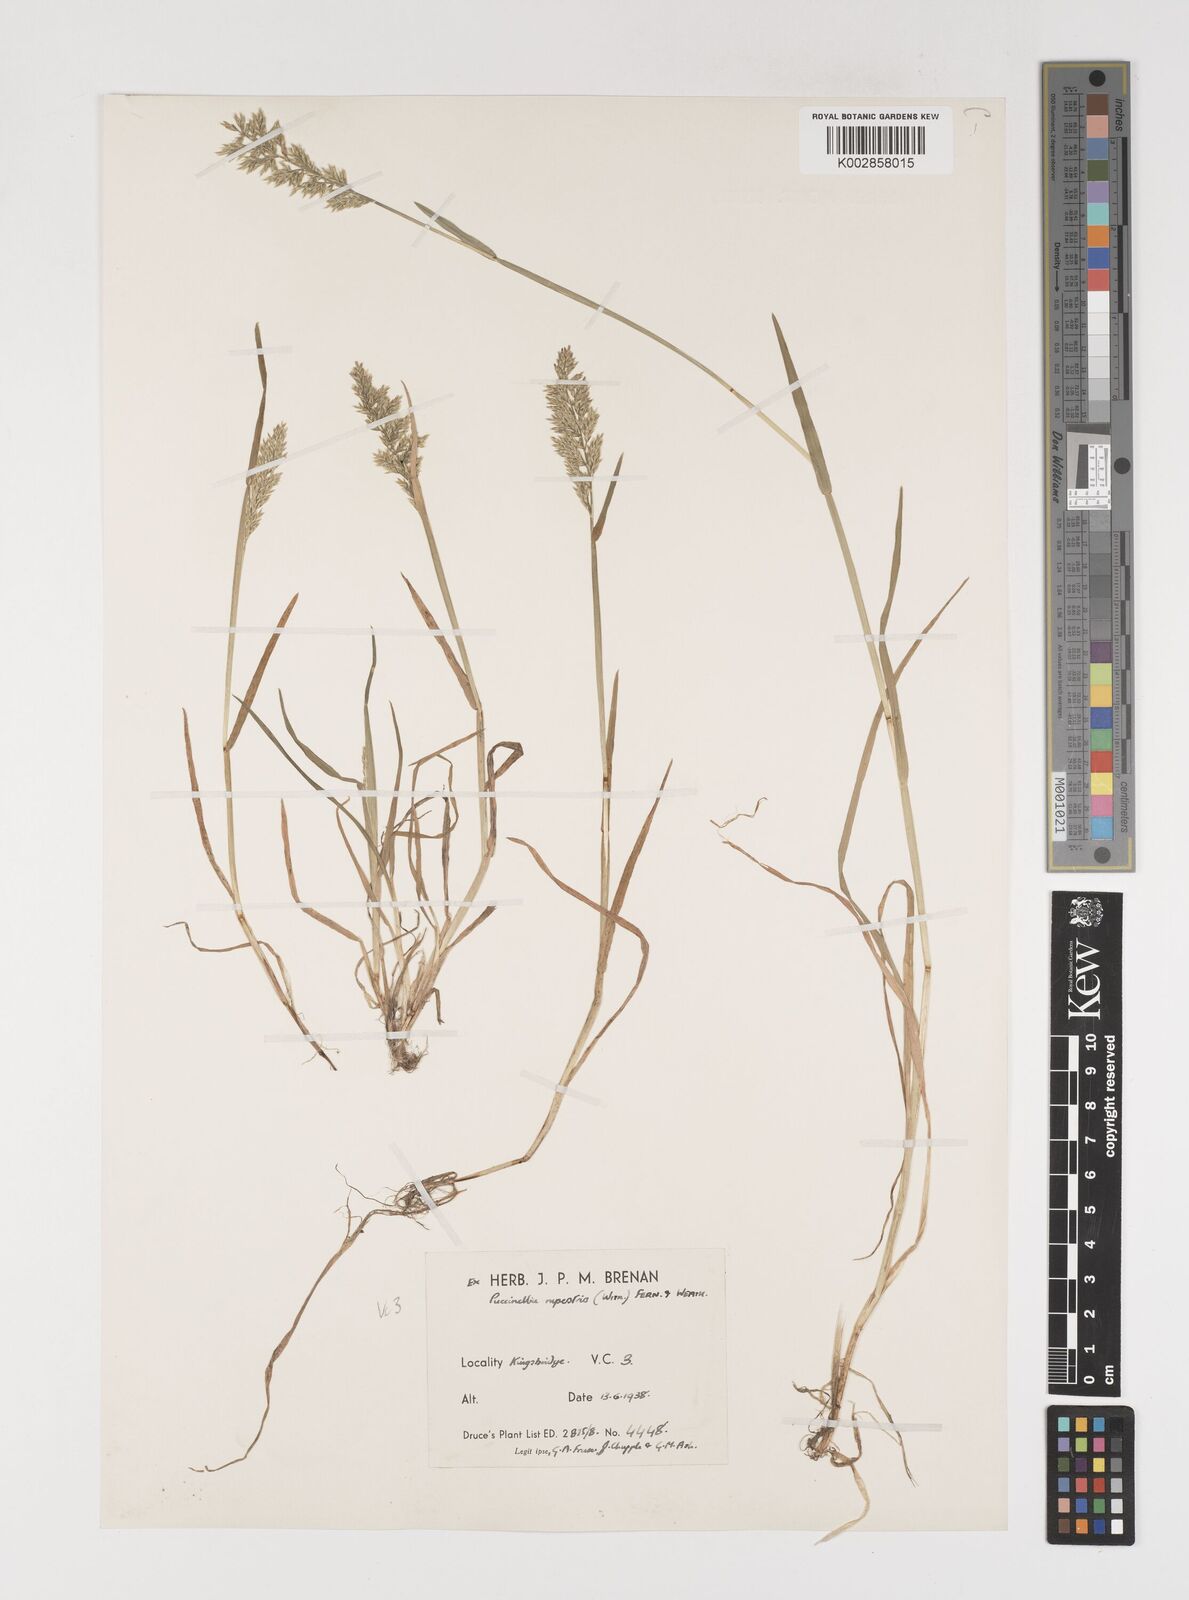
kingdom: Plantae
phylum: Tracheophyta
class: Liliopsida
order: Poales
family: Poaceae
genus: Puccinellia
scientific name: Puccinellia rupestris
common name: Stiff saltmarsh-grass
